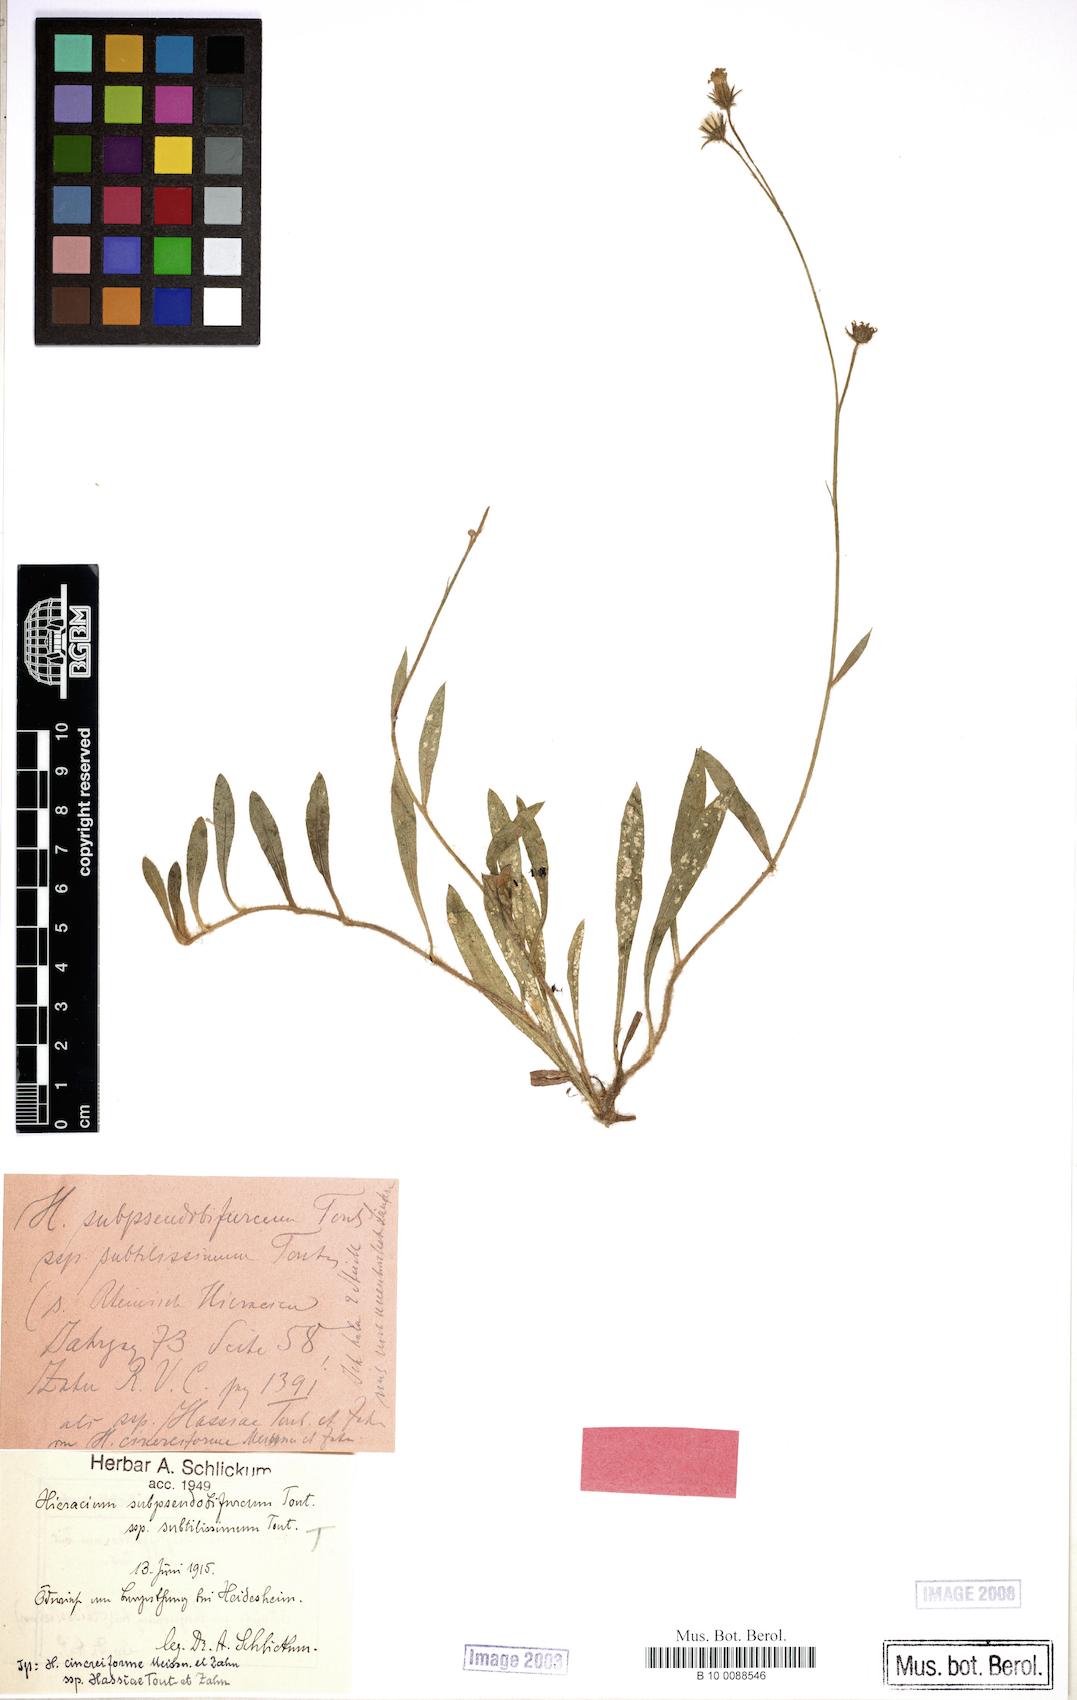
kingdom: Plantae
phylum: Tracheophyta
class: Magnoliopsida
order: Asterales
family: Asteraceae
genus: Hieracium
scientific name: Hieracium
